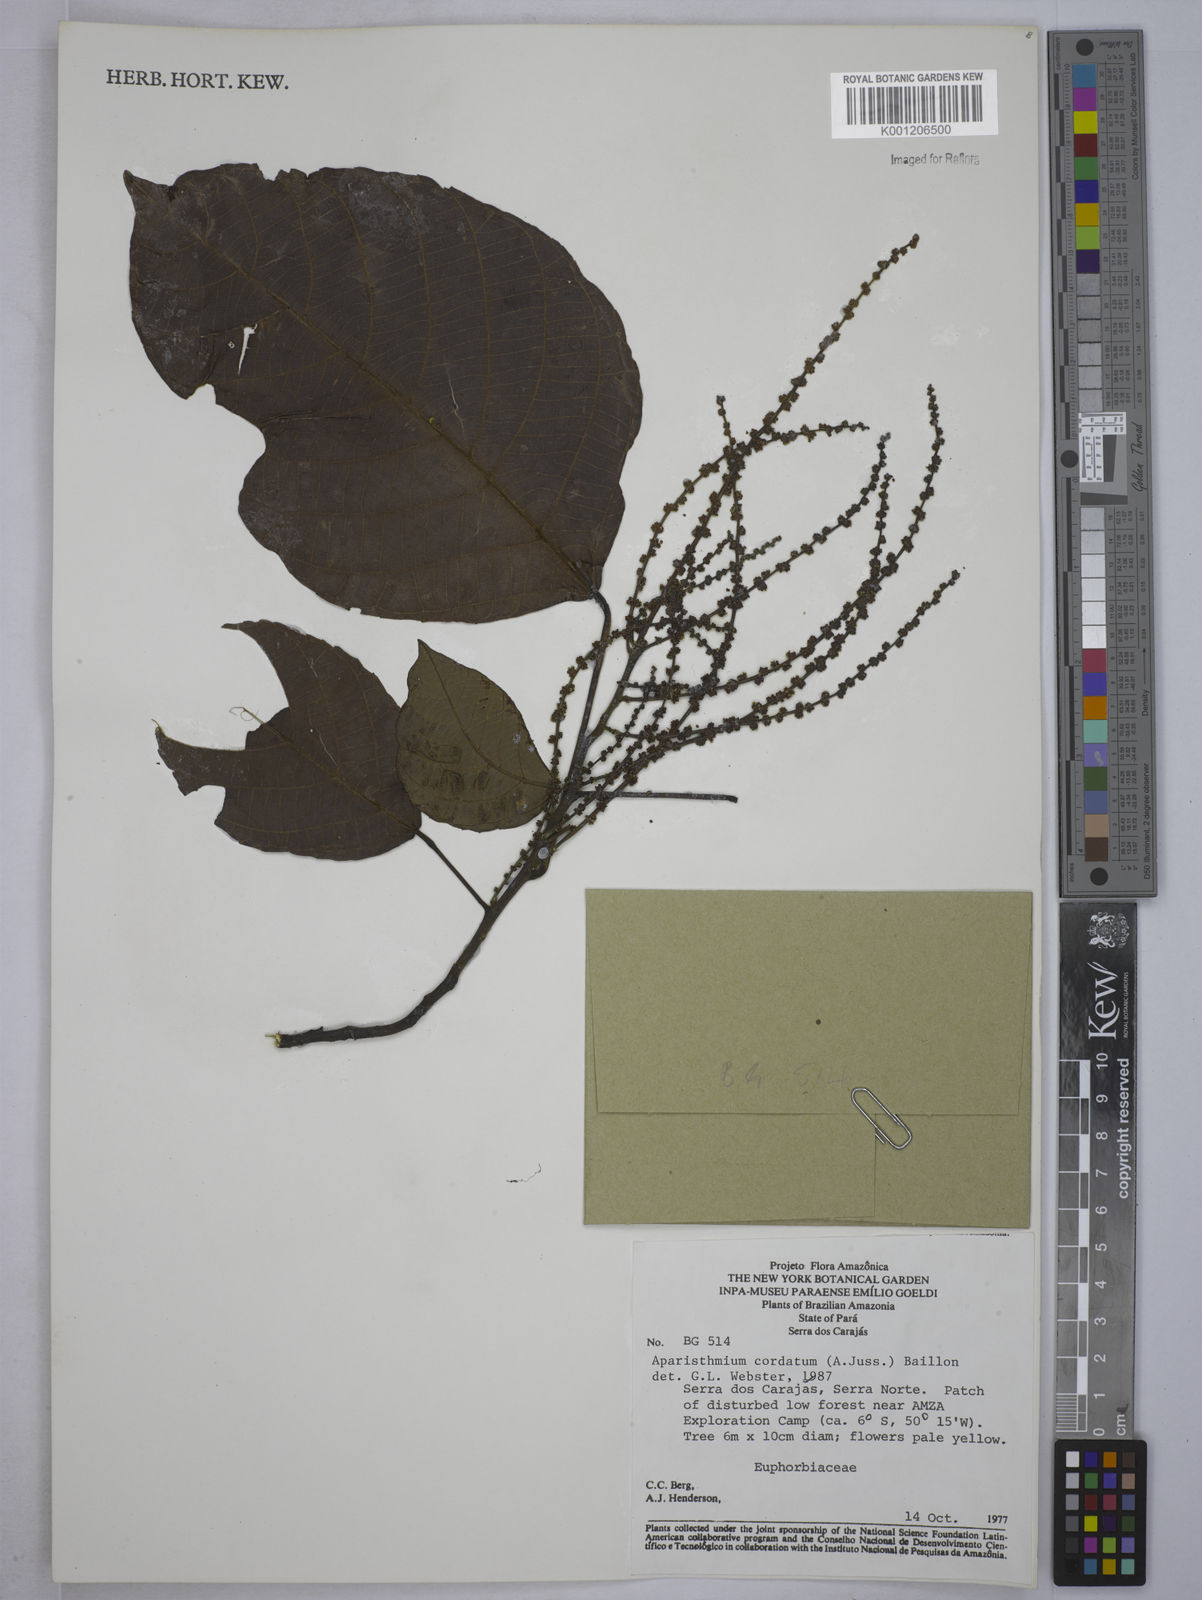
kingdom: Plantae
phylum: Tracheophyta
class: Magnoliopsida
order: Malpighiales
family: Euphorbiaceae
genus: Aparisthmium
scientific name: Aparisthmium cordatum
